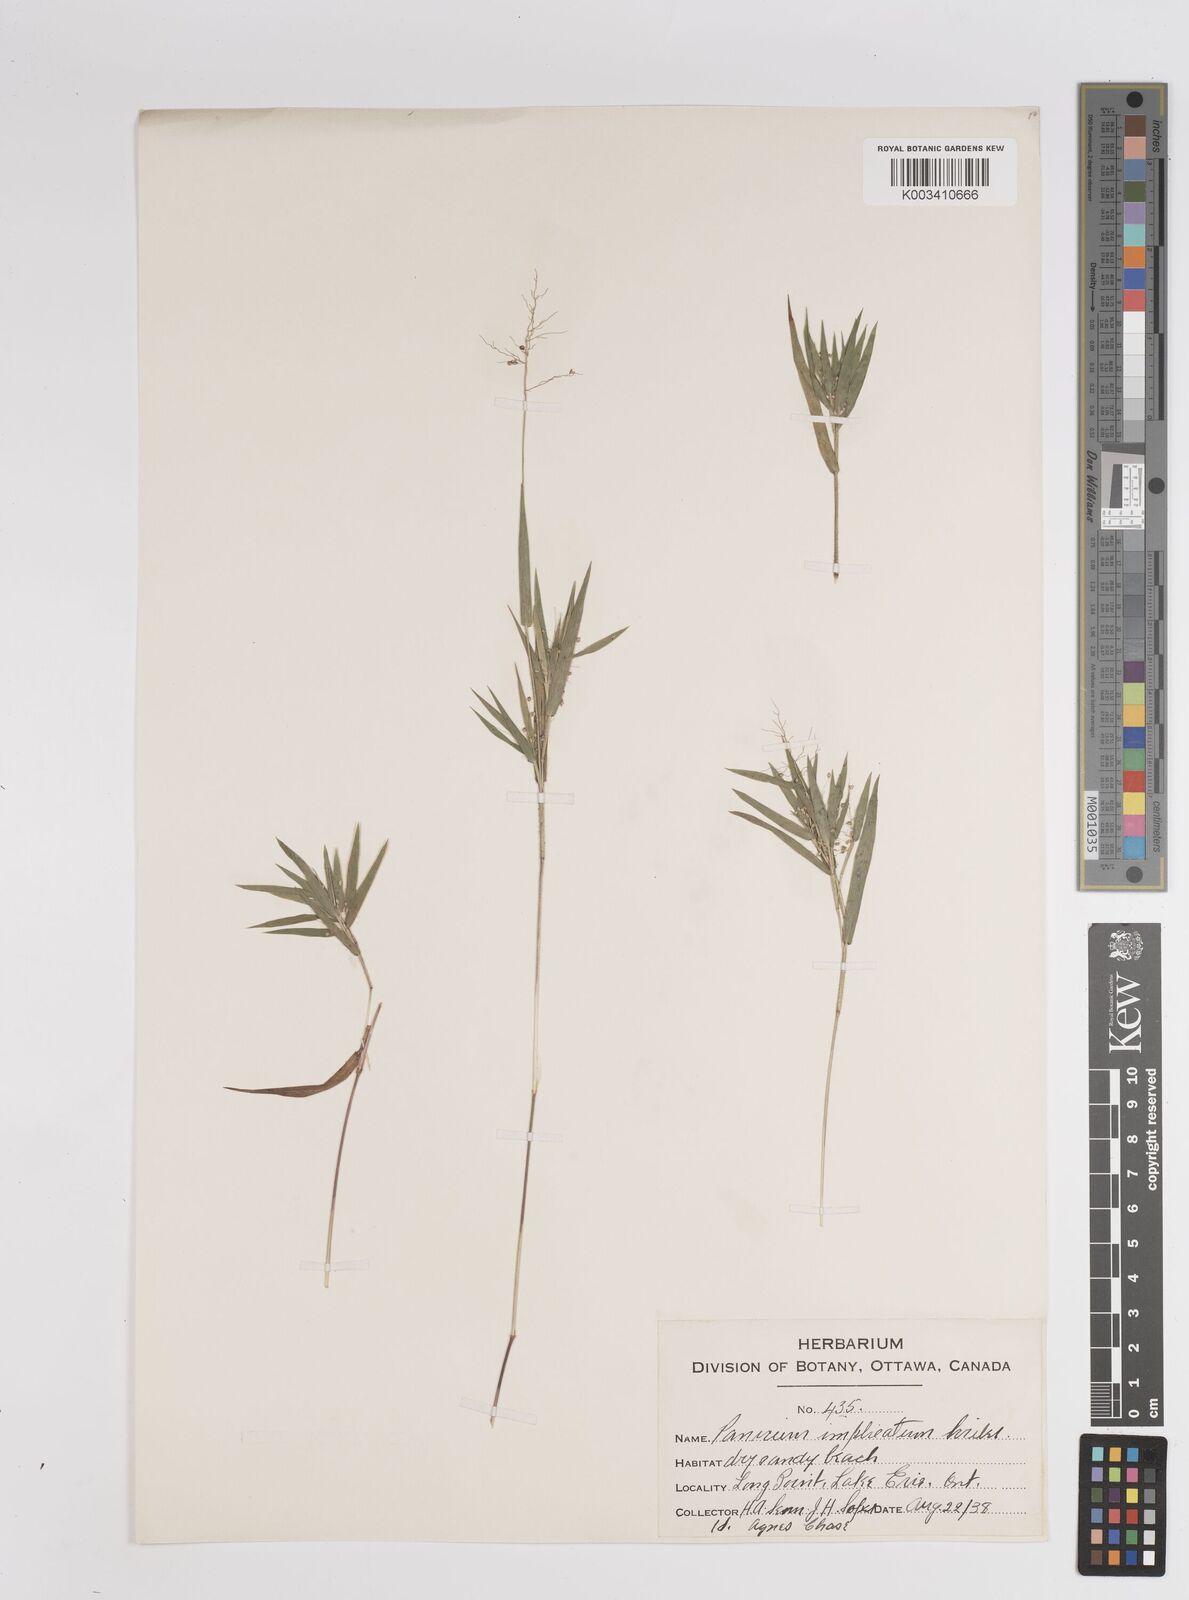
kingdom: Plantae
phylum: Tracheophyta
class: Liliopsida
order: Poales
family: Poaceae
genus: Dichanthelium
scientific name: Dichanthelium implicatum
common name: Slender-stemmed panicgrass
